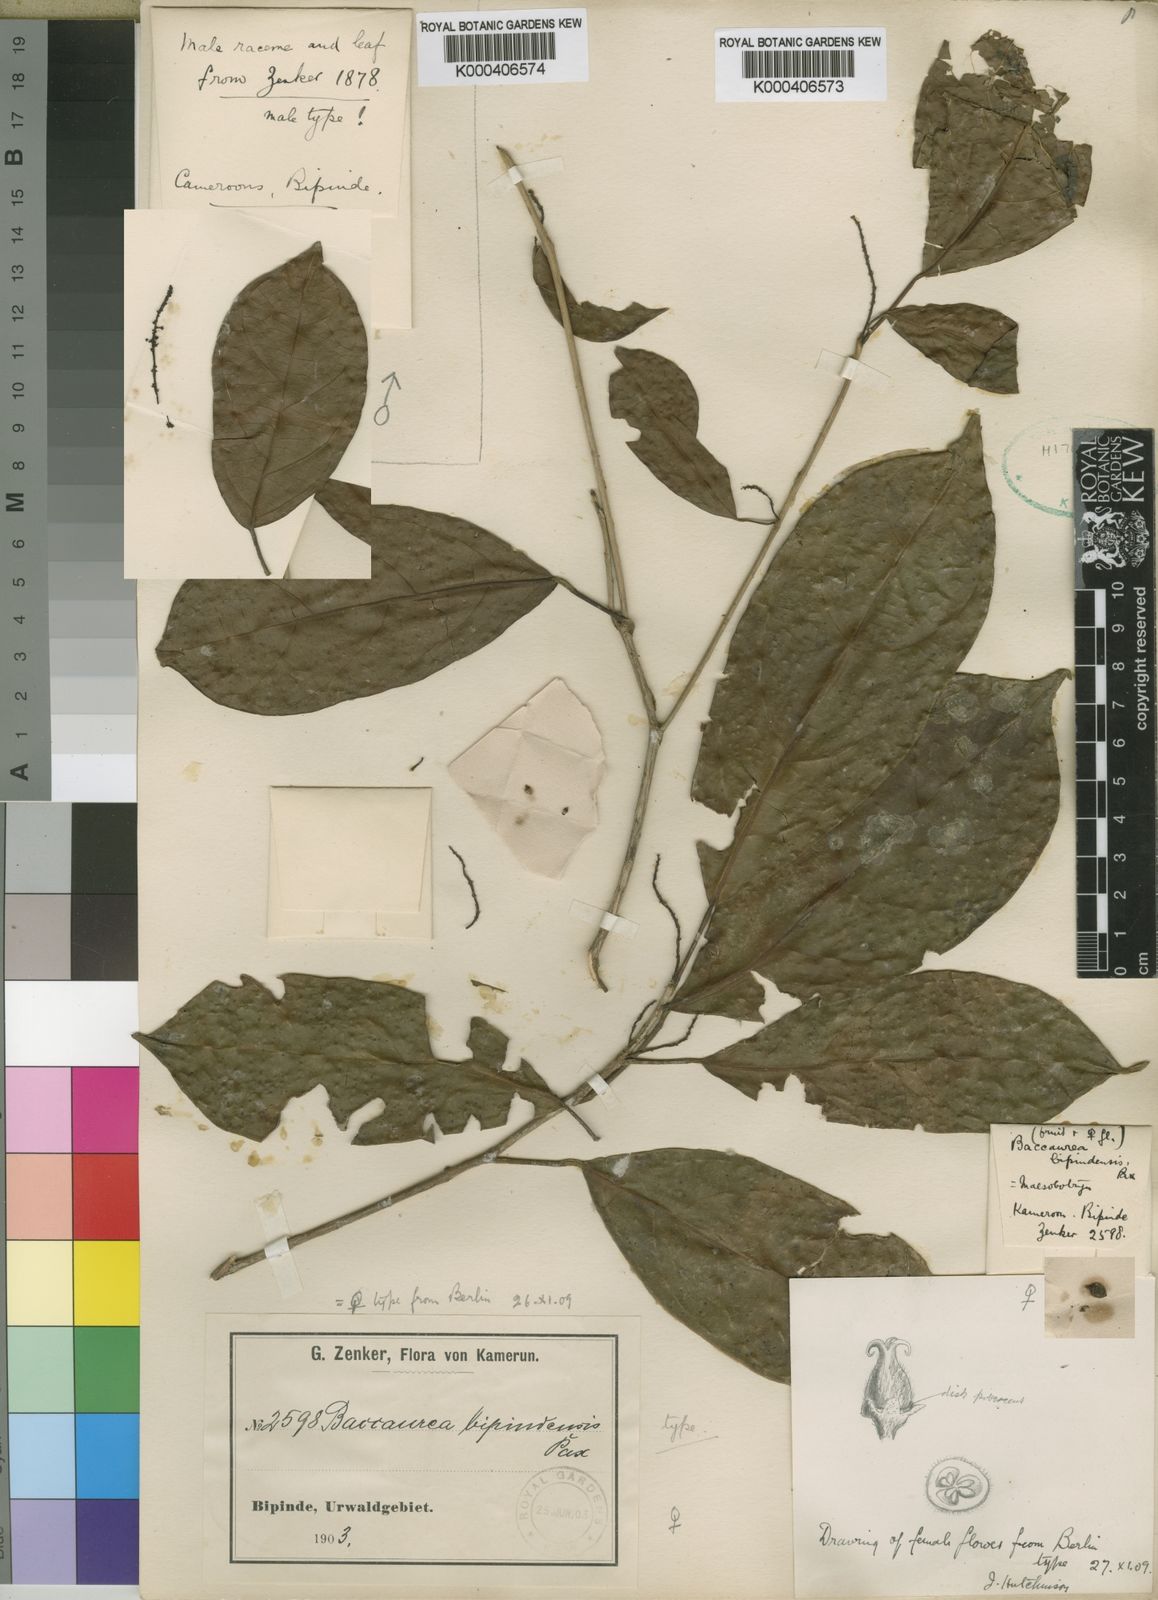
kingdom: Plantae
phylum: Tracheophyta
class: Magnoliopsida
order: Malpighiales
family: Phyllanthaceae
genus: Maesobotrya
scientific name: Maesobotrya
